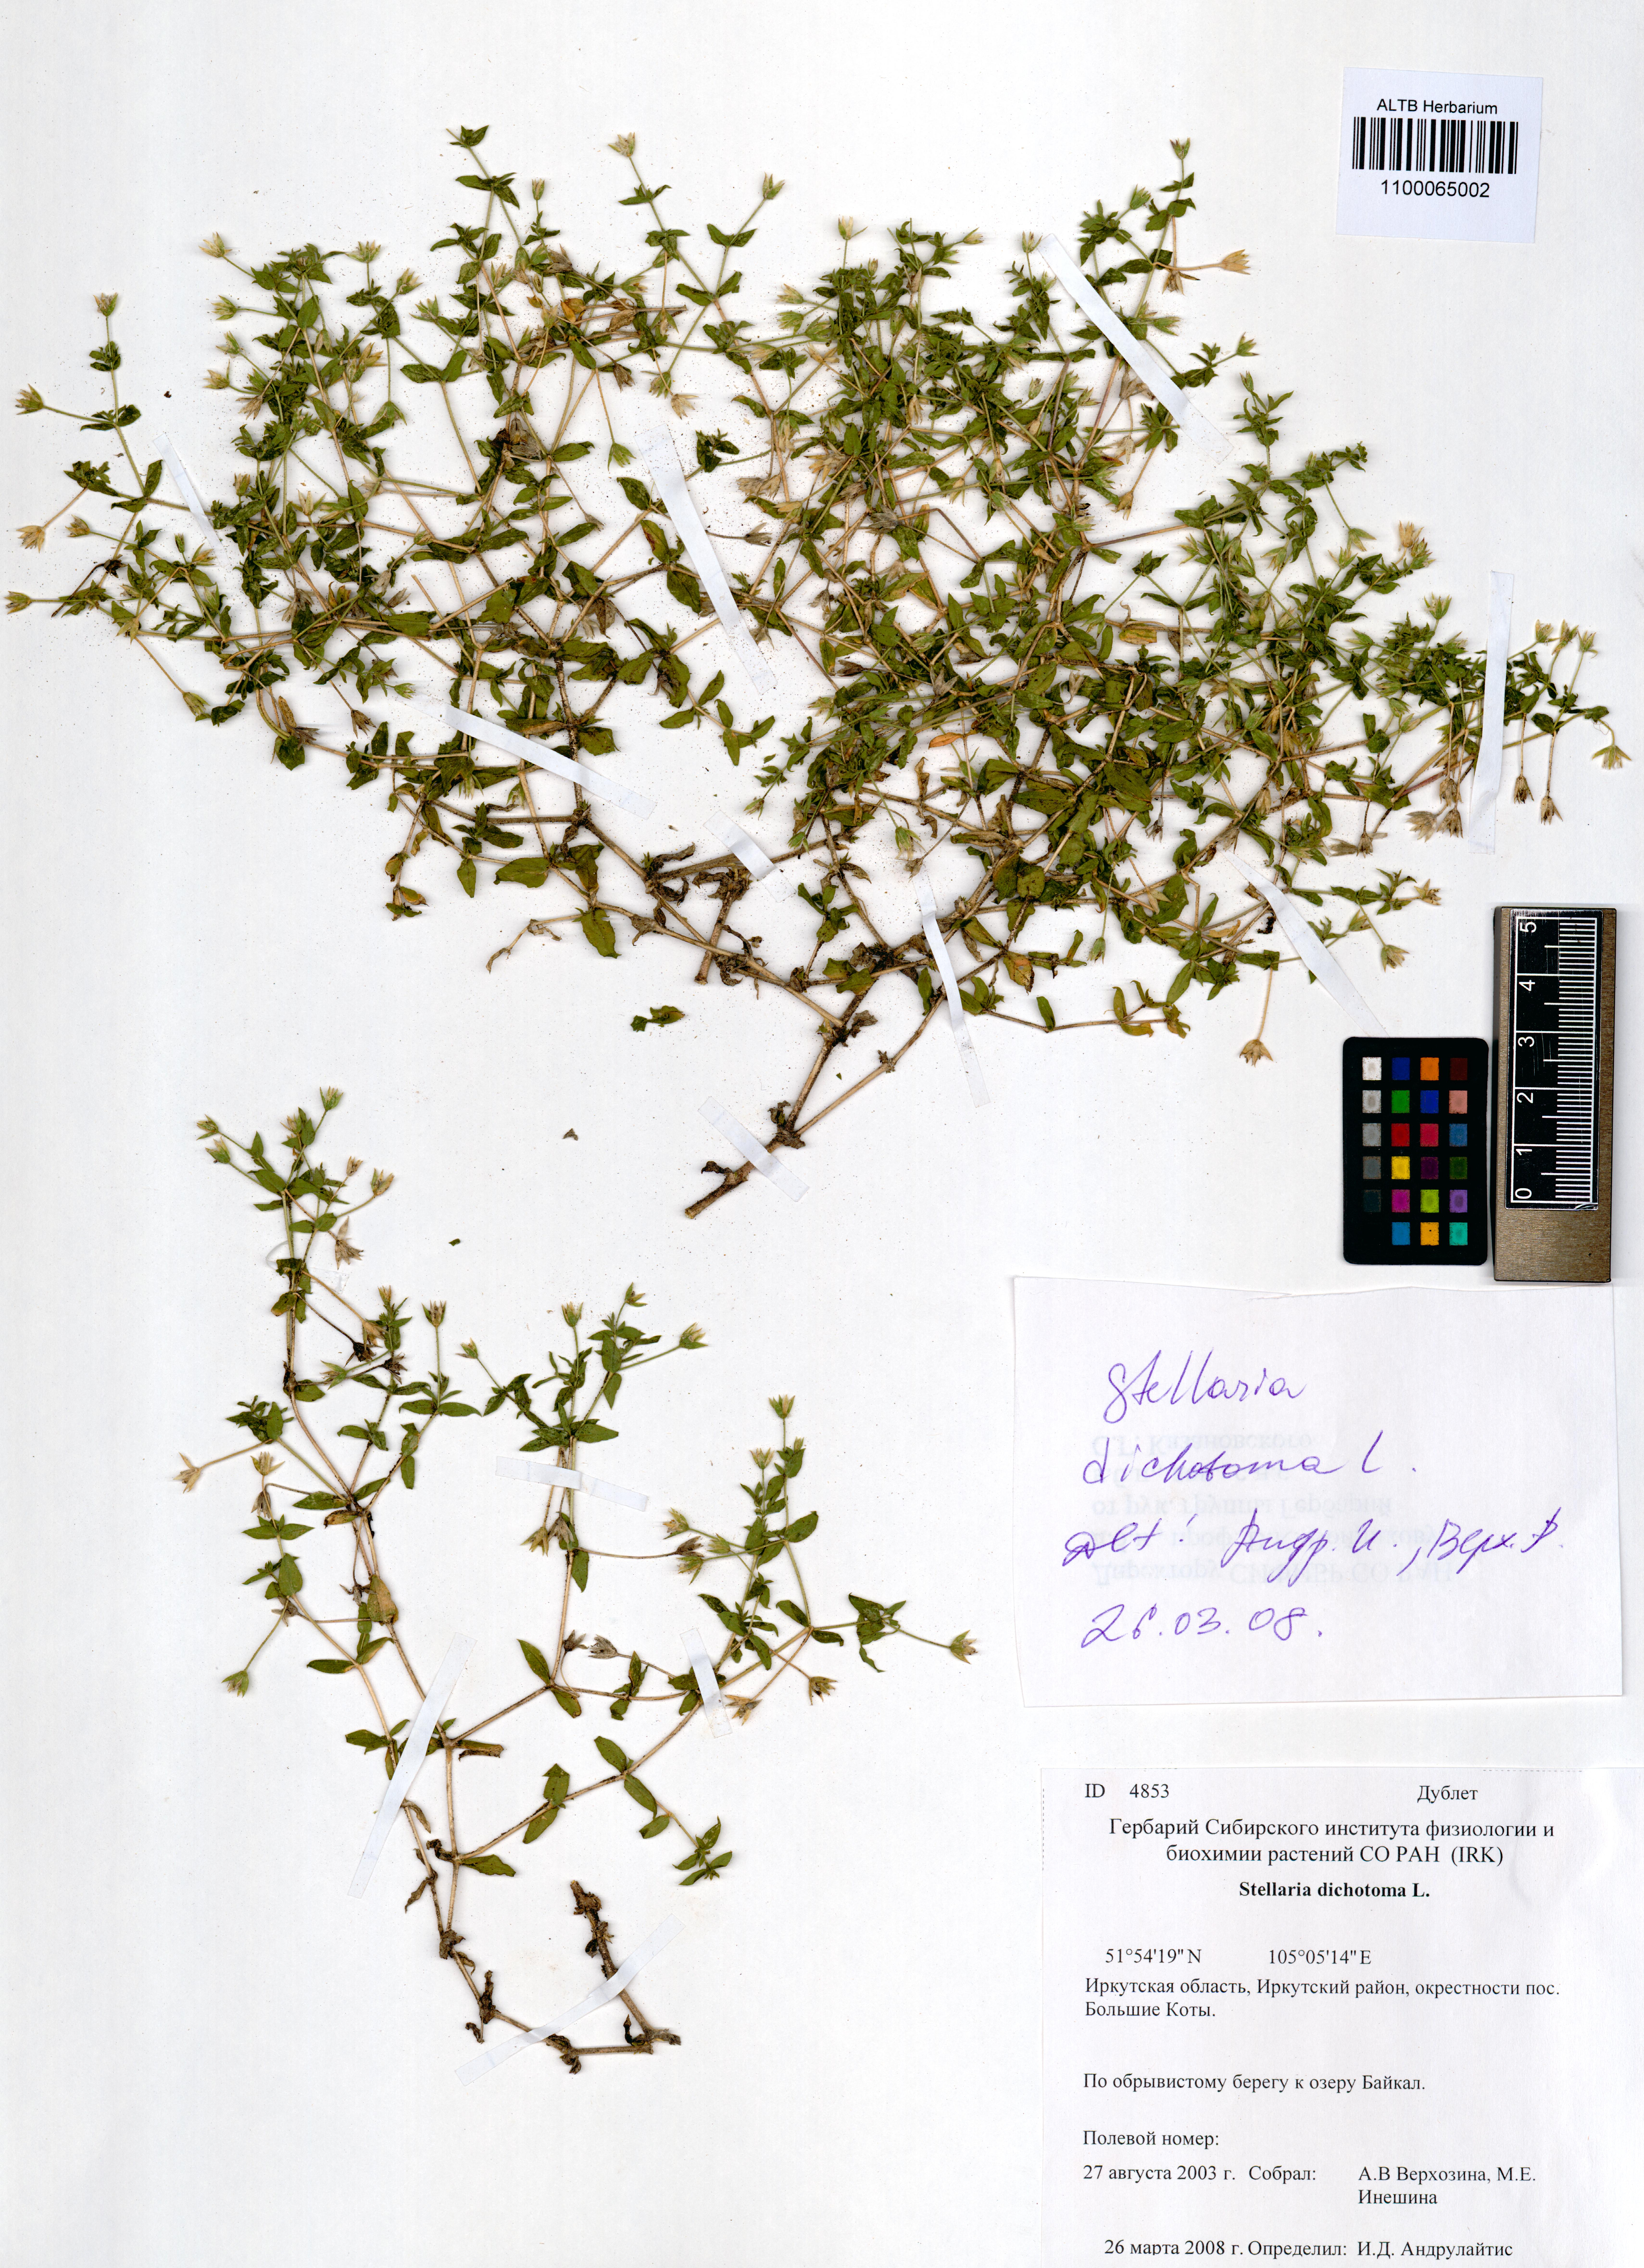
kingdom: Plantae
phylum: Tracheophyta
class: Magnoliopsida
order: Caryophyllales
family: Caryophyllaceae
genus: Mesostemma
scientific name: Mesostemma dichotomum
